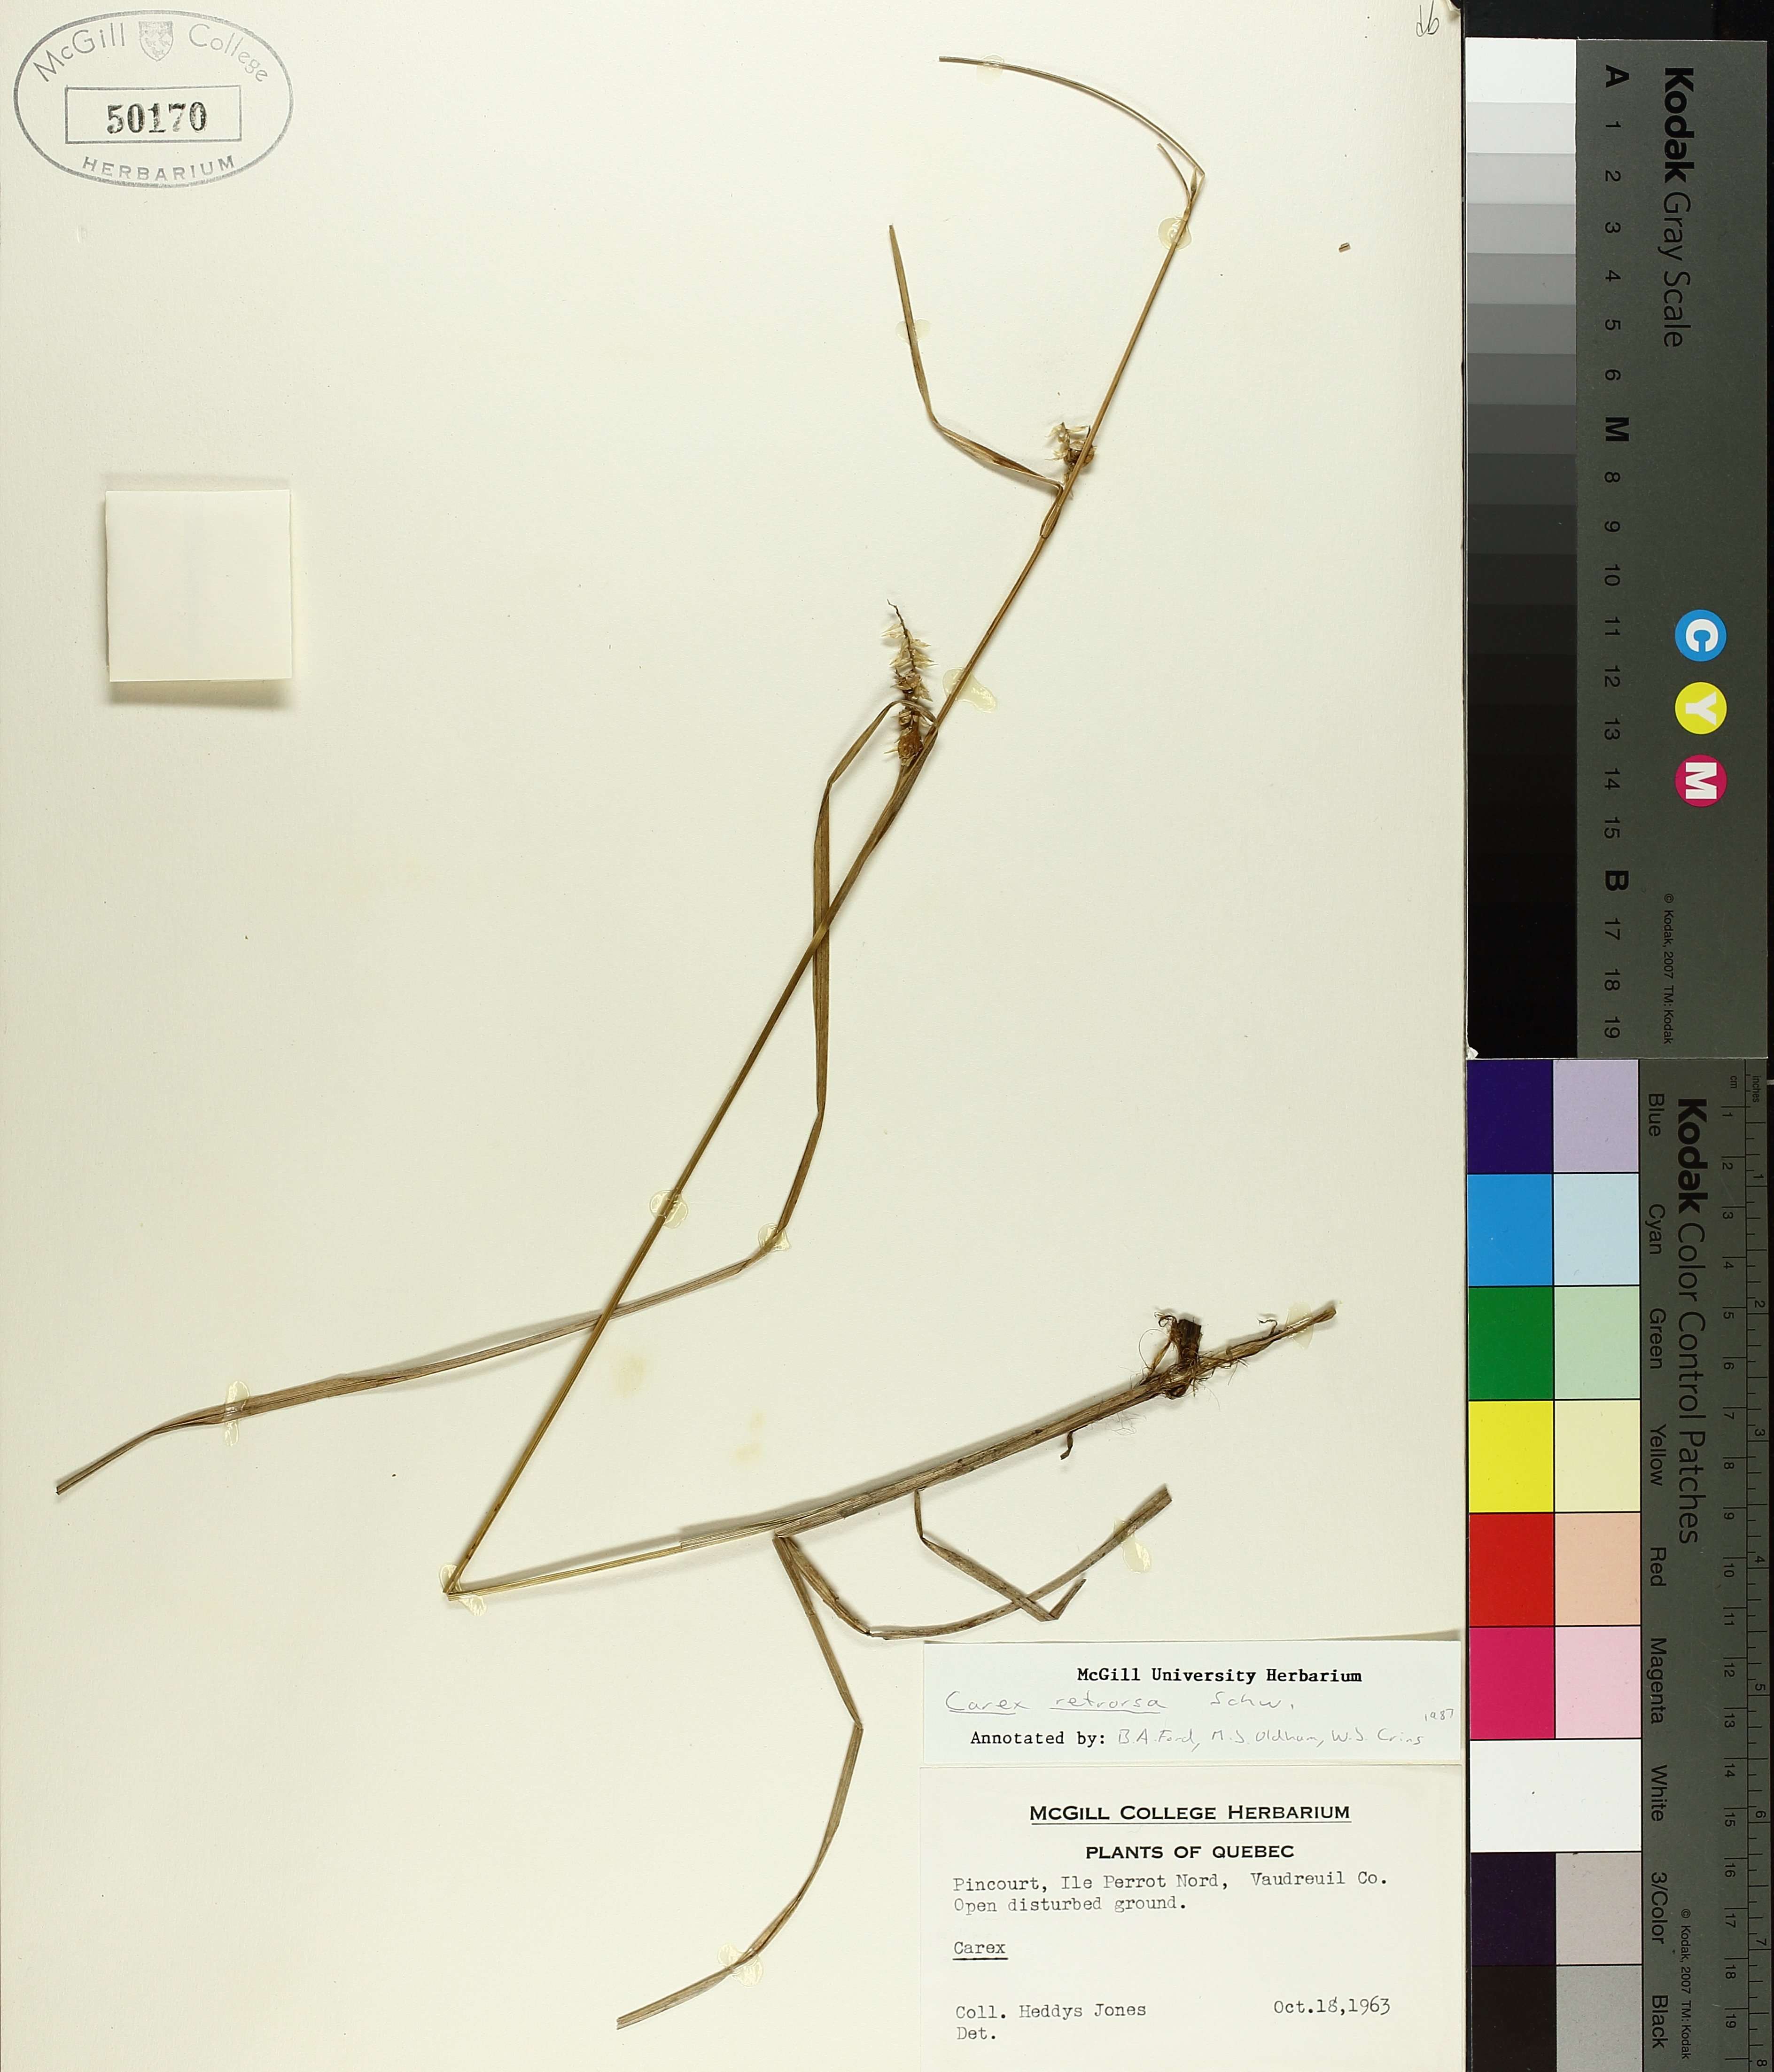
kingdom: Plantae
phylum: Tracheophyta
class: Liliopsida
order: Poales
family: Cyperaceae
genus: Carex
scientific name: Carex retrorsa
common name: Knot-sheath sedge
